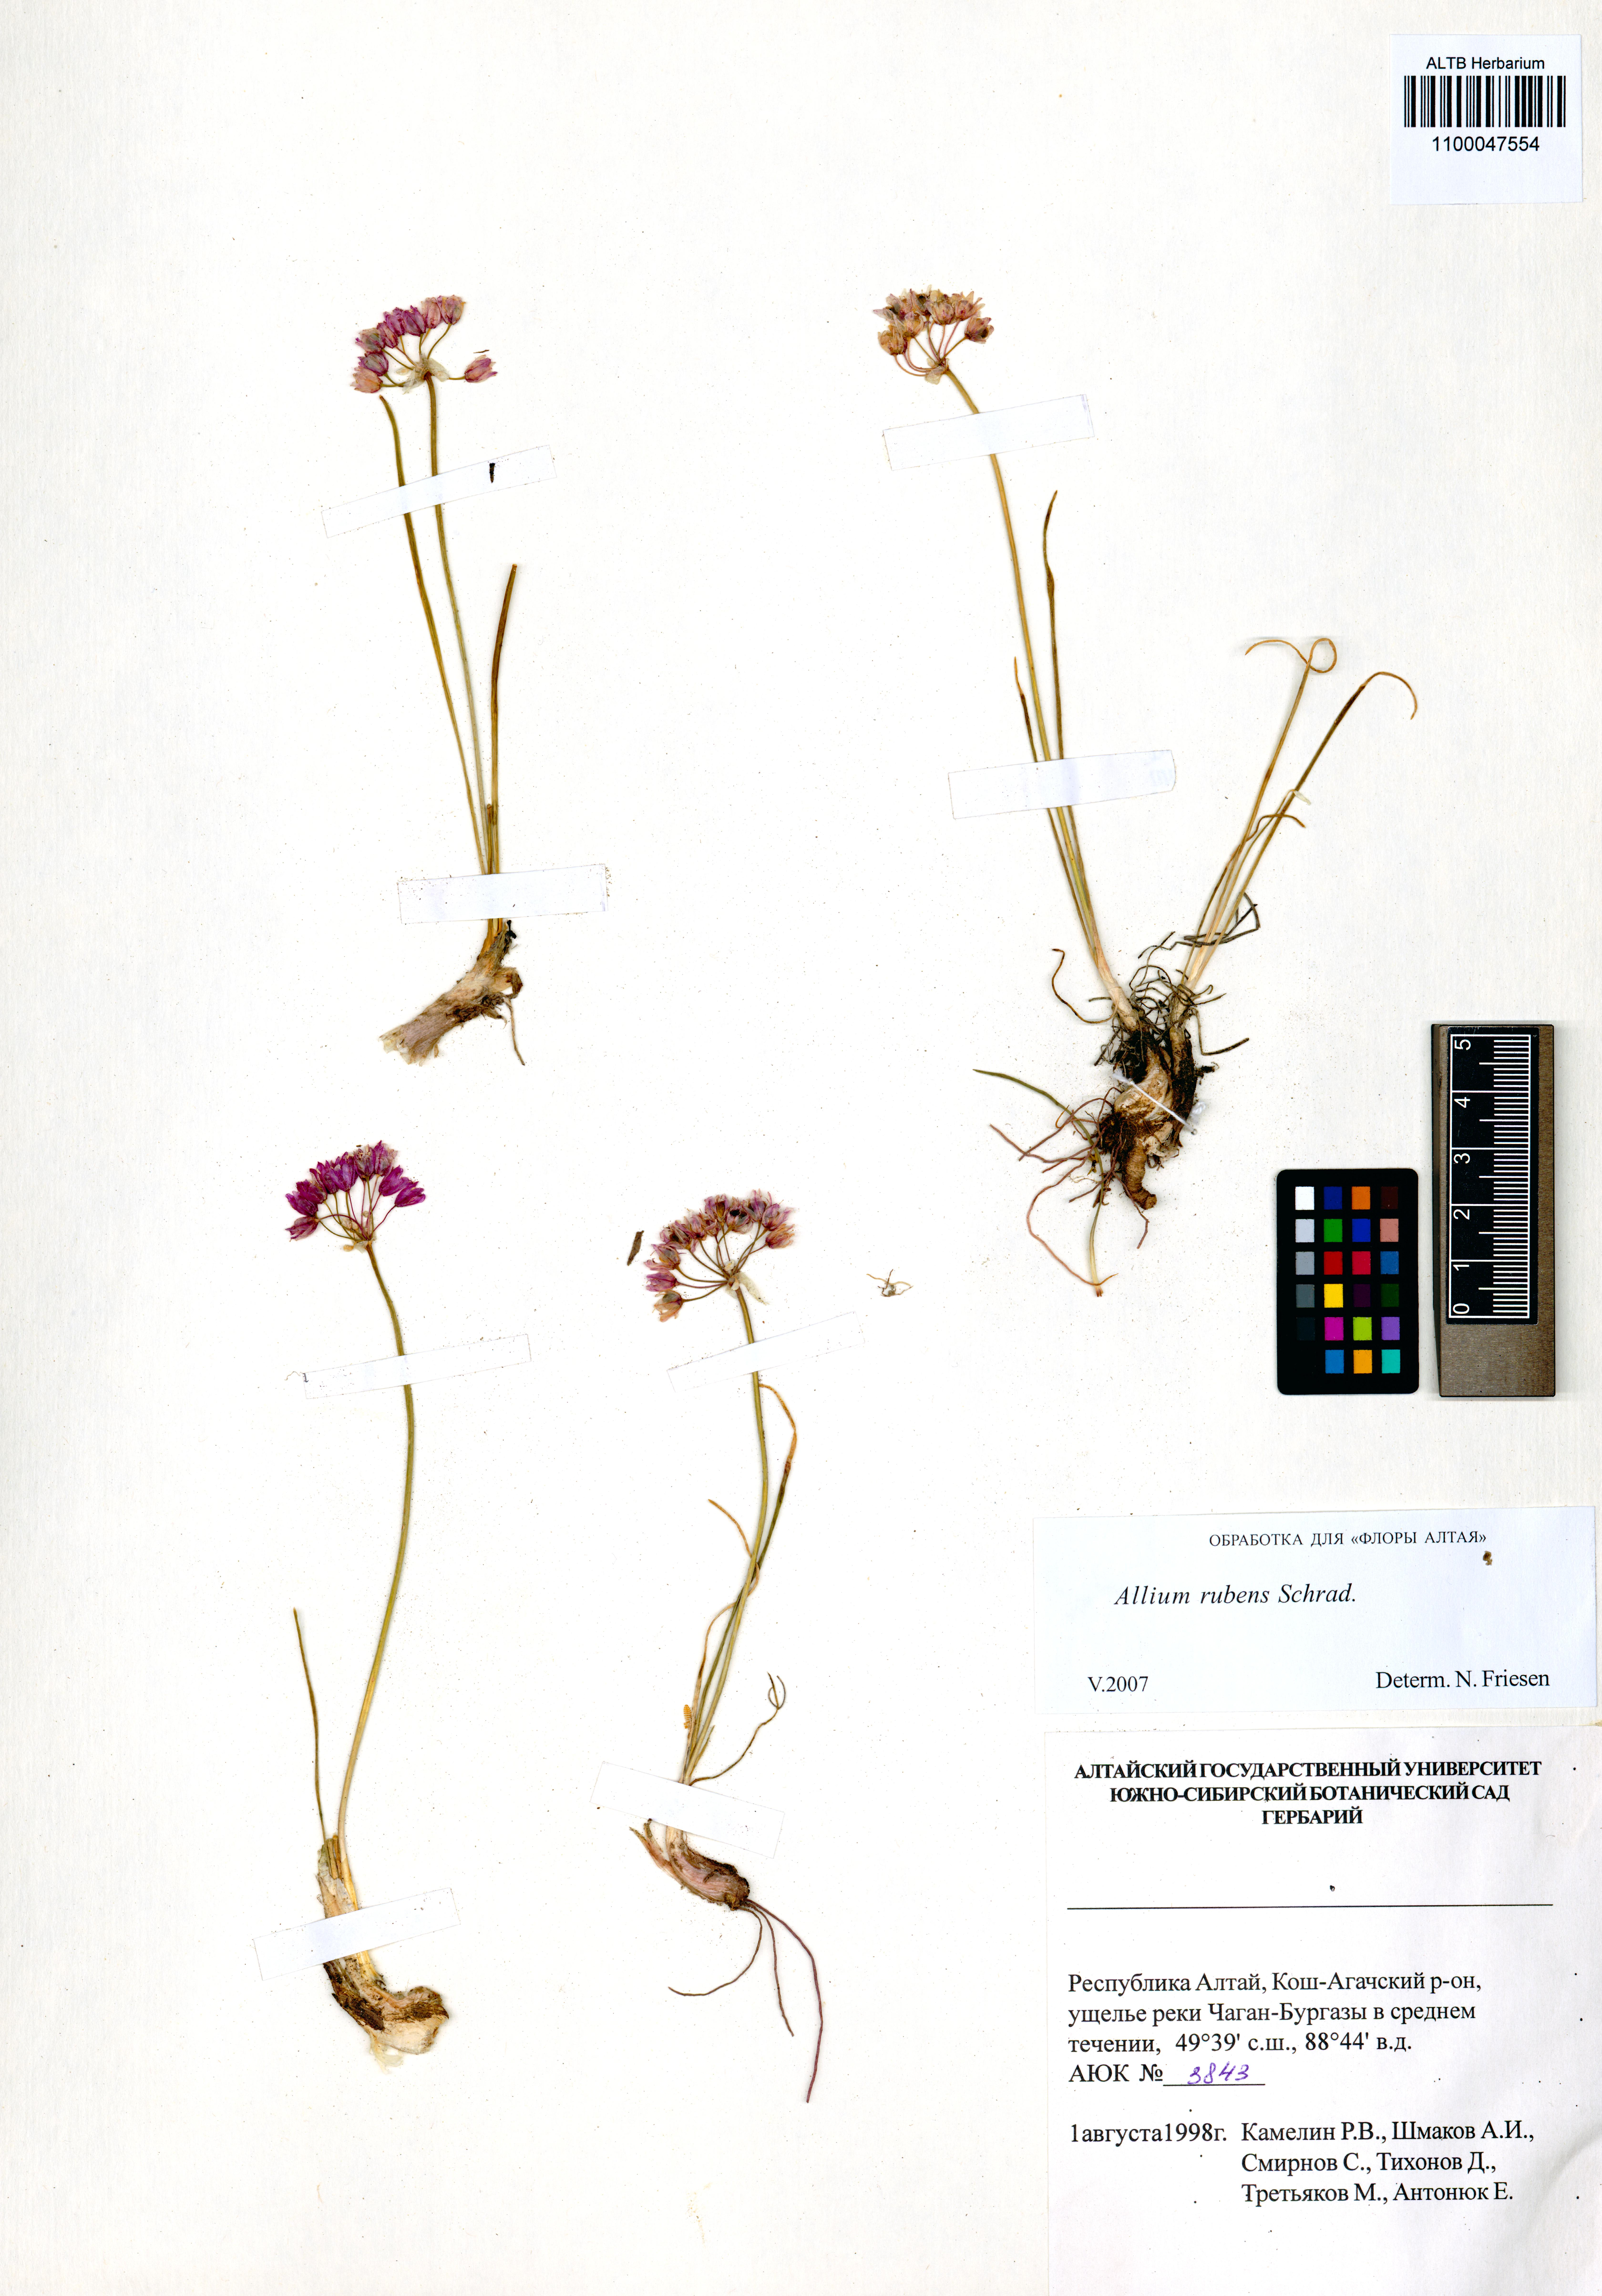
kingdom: Plantae
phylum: Tracheophyta
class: Liliopsida
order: Asparagales
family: Amaryllidaceae
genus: Allium
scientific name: Allium rubens
